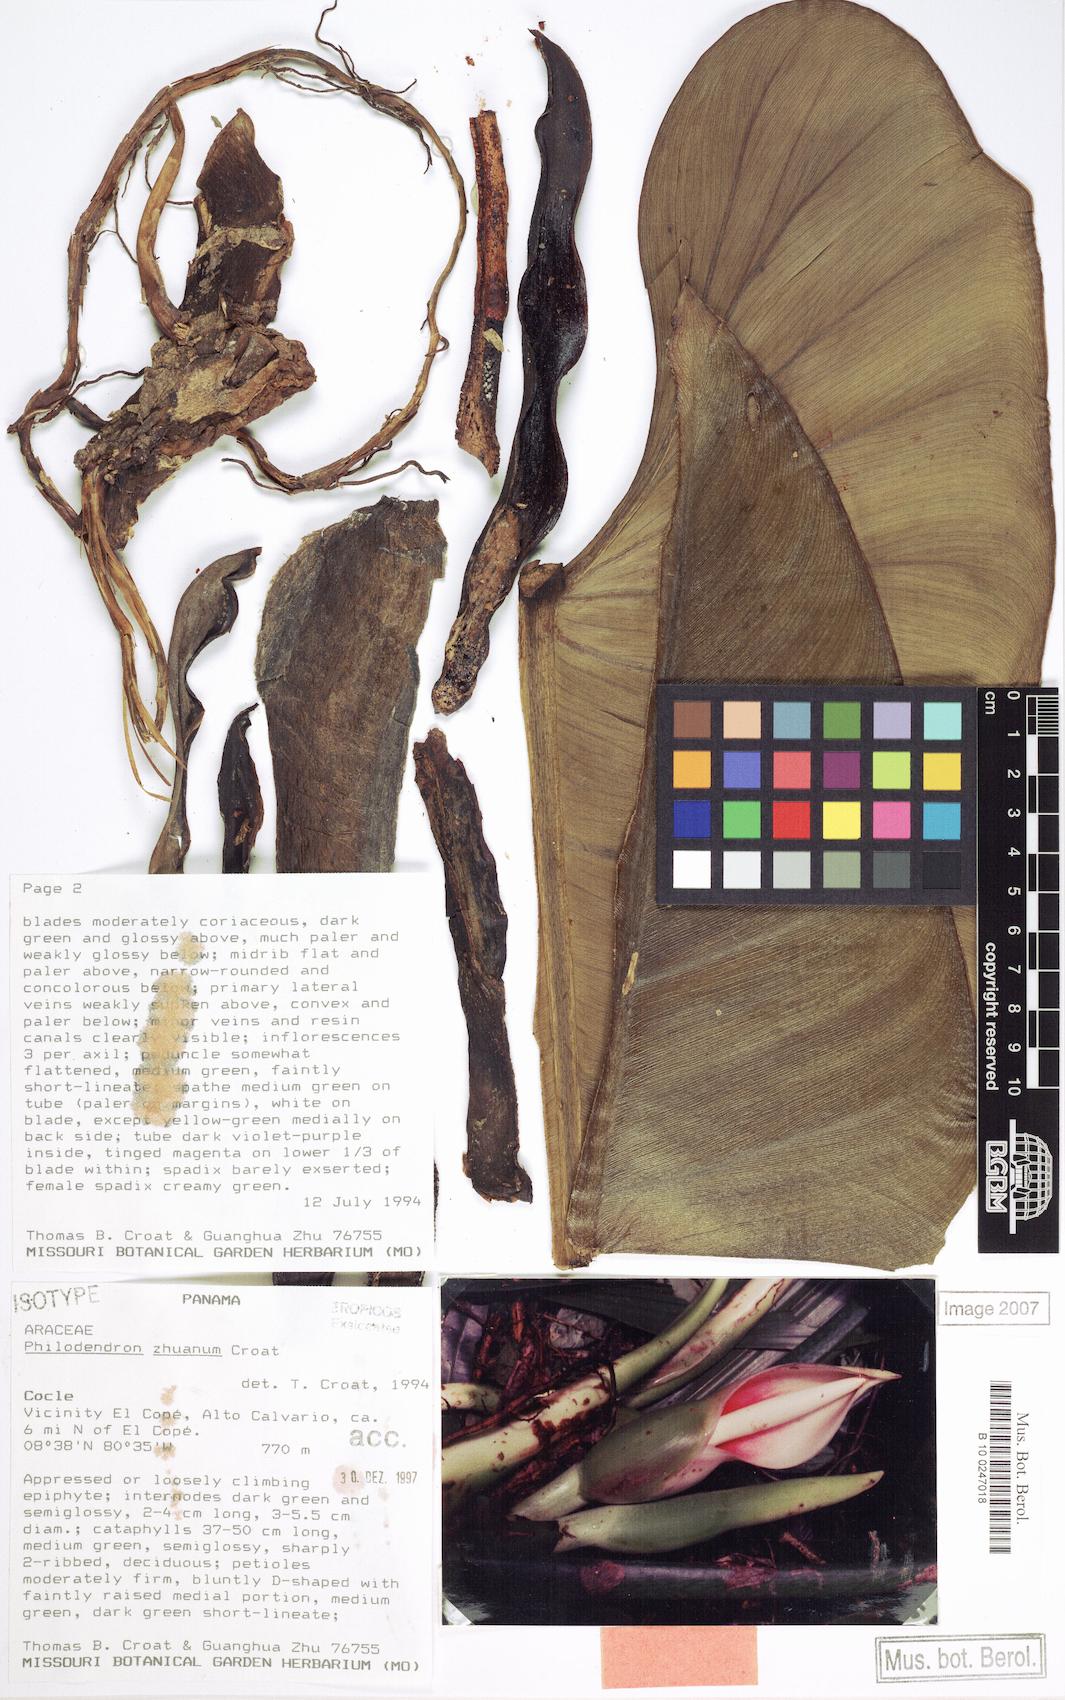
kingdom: Plantae
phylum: Tracheophyta
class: Liliopsida
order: Alismatales
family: Araceae
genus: Philodendron
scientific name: Philodendron zhuanum
